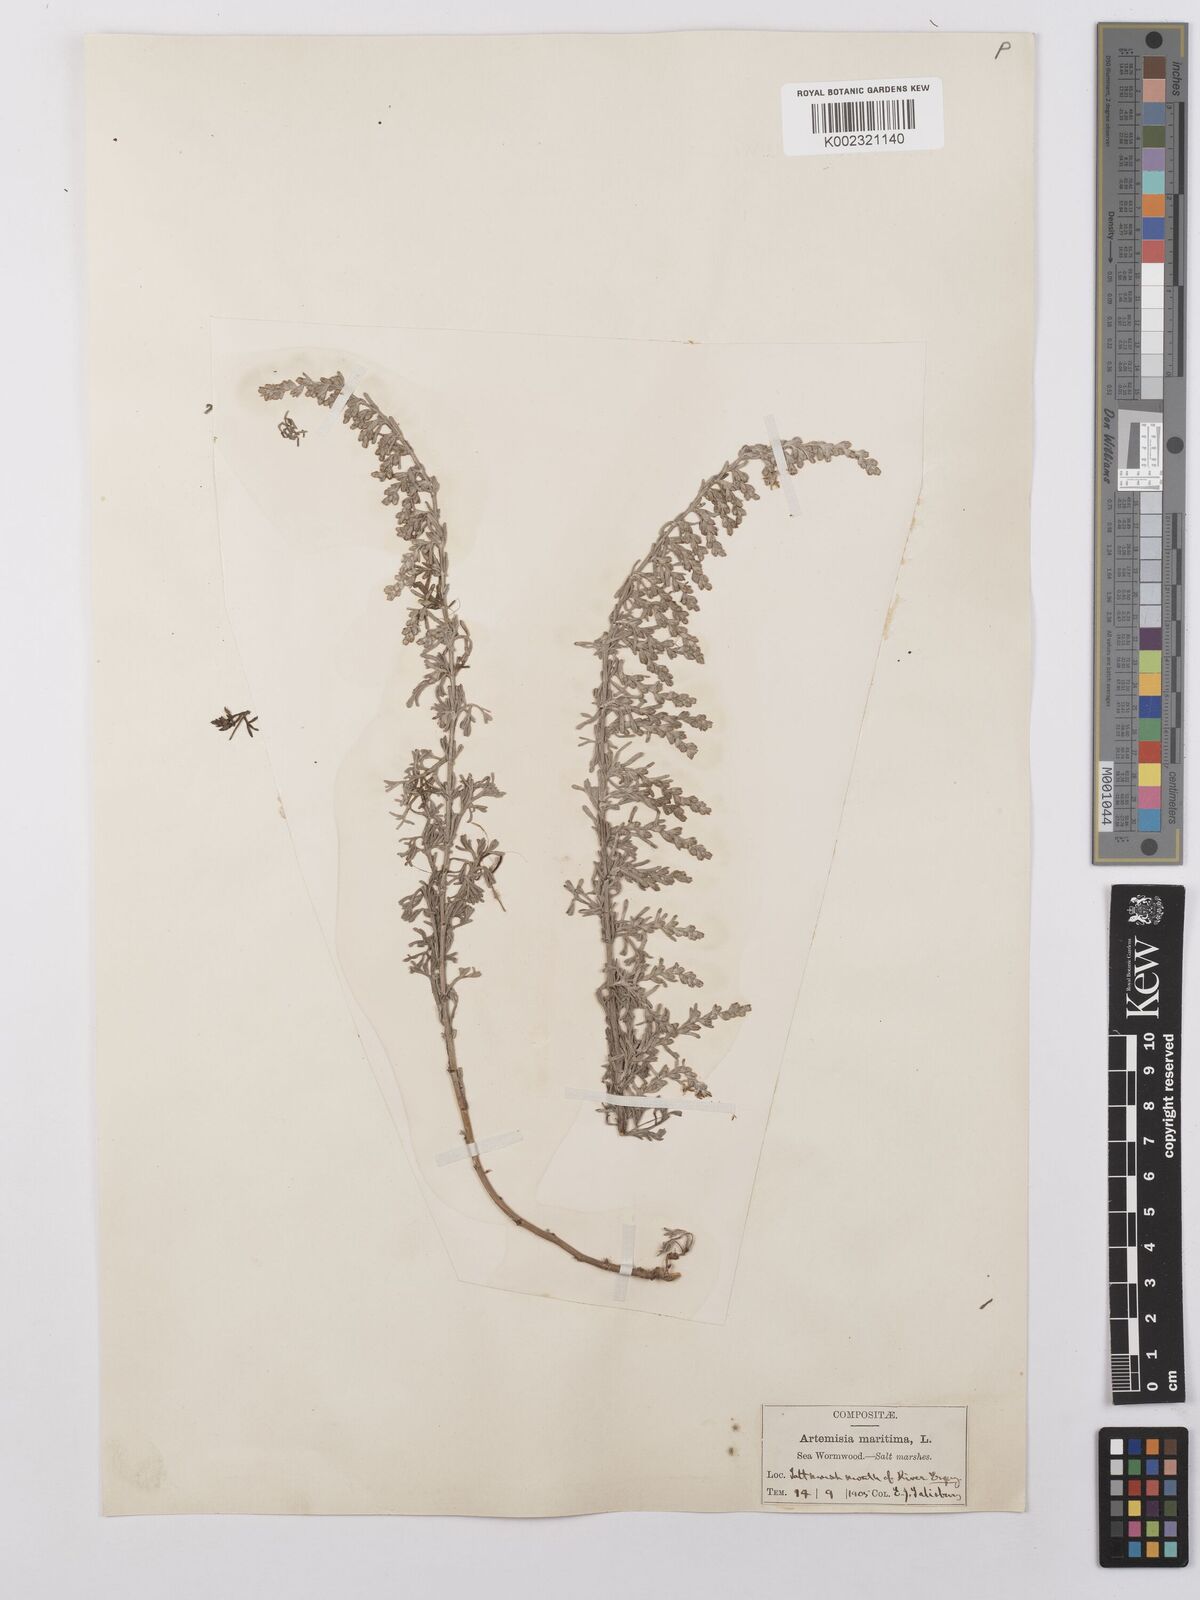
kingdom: Plantae
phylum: Tracheophyta
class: Magnoliopsida
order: Asterales
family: Asteraceae
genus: Artemisia
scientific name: Artemisia maritima
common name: Wormseed
